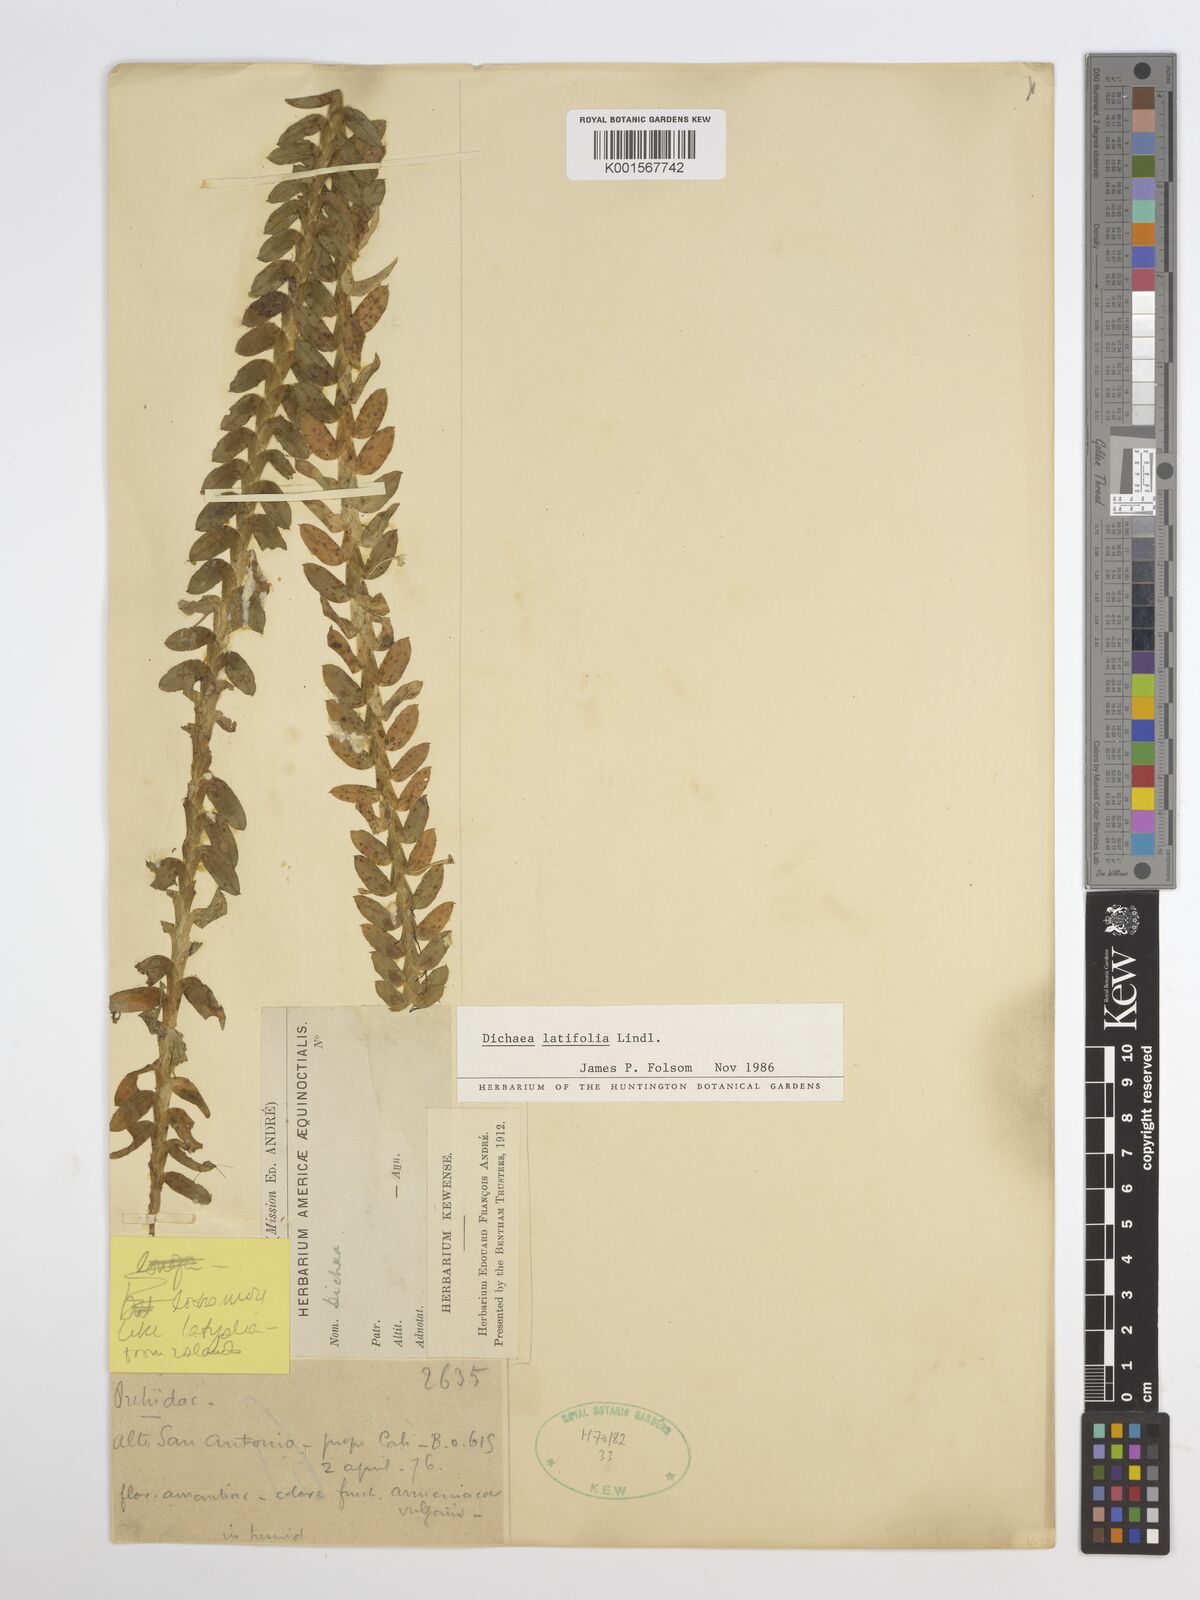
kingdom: Plantae
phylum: Tracheophyta
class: Liliopsida
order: Asparagales
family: Orchidaceae
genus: Dichaea
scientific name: Dichaea latifolia
